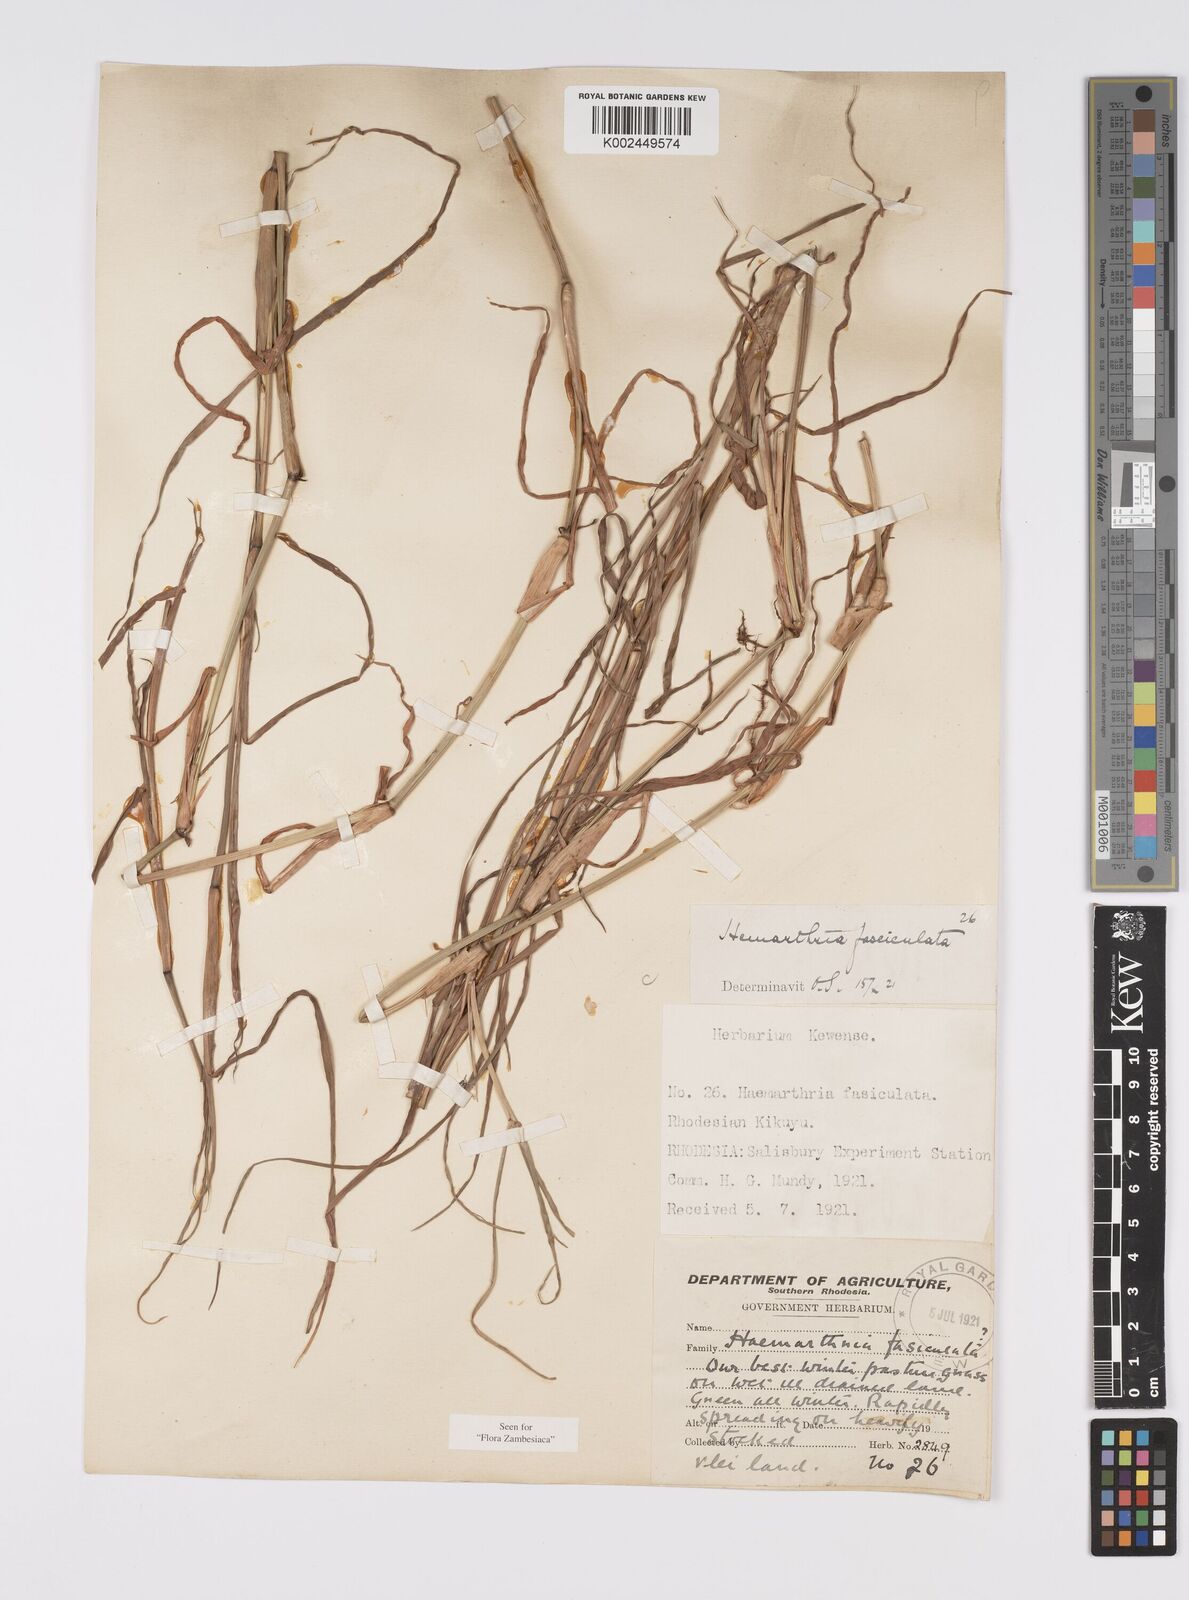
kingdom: Plantae
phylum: Tracheophyta
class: Liliopsida
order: Poales
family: Poaceae
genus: Hemarthria
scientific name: Hemarthria altissima
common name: African jointgrass
